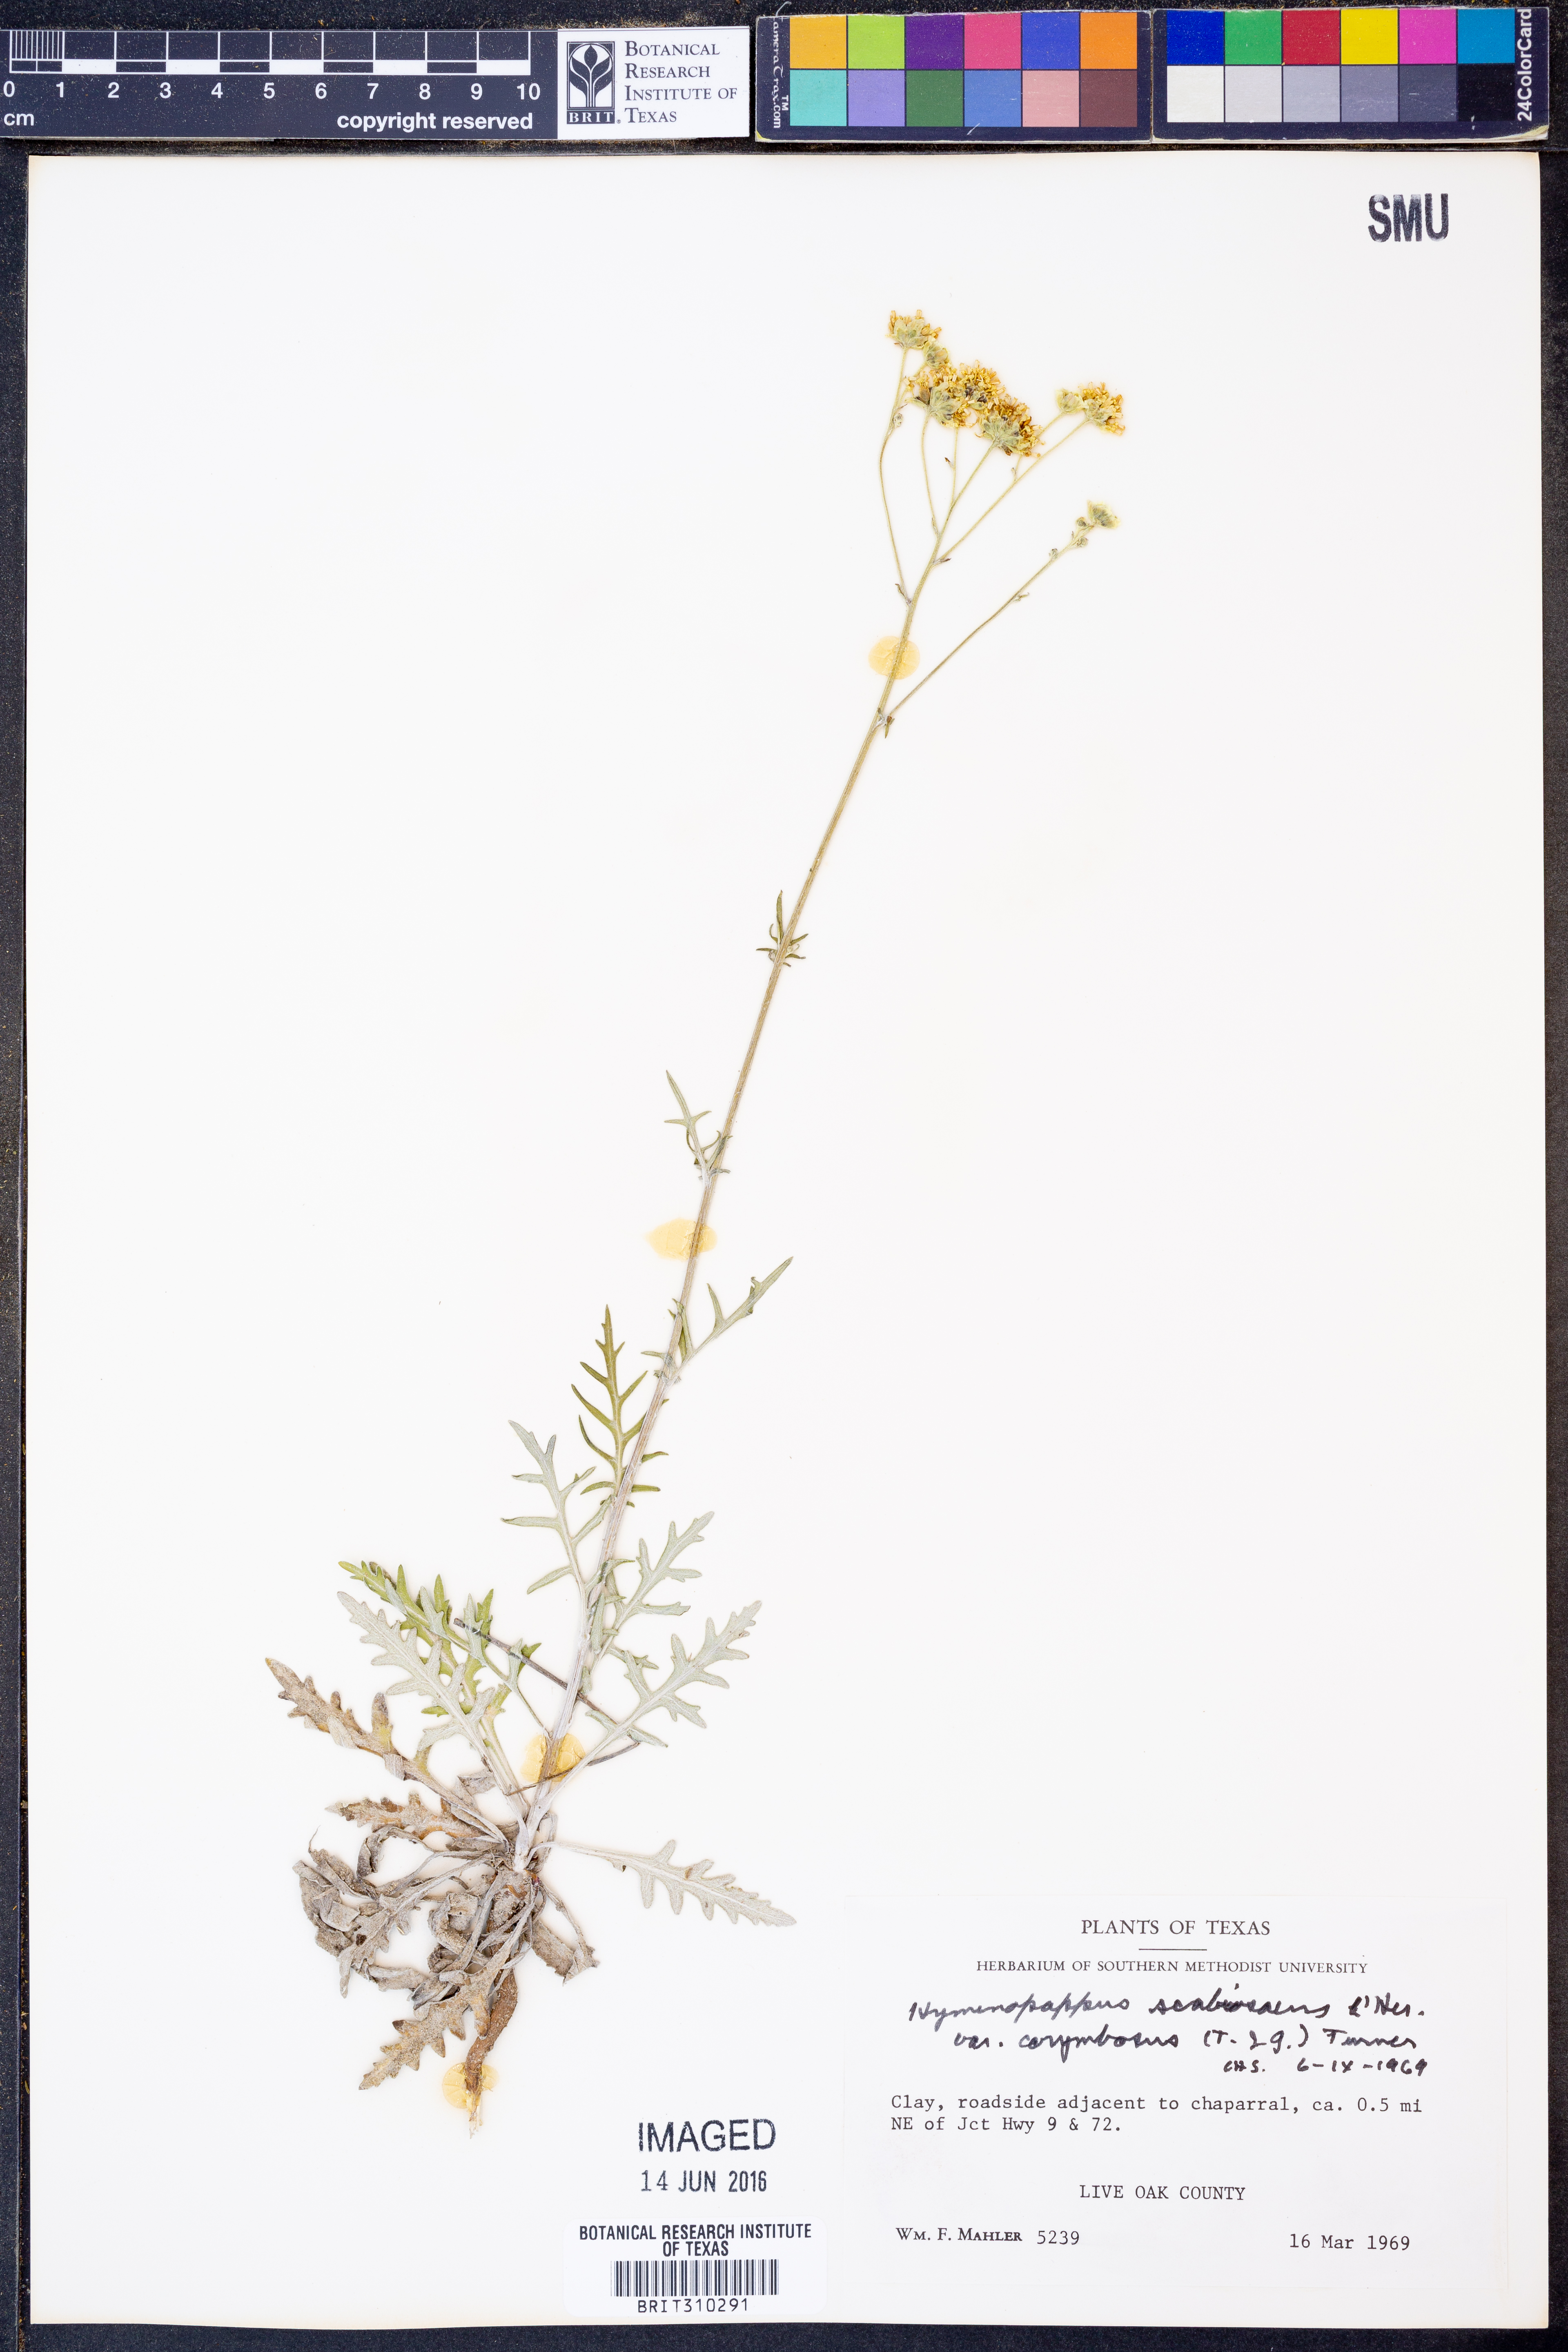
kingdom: Plantae
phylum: Tracheophyta
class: Magnoliopsida
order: Asterales
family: Asteraceae
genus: Hymenopappus
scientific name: Hymenopappus scabiosaeus
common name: Carolina woollywhite
